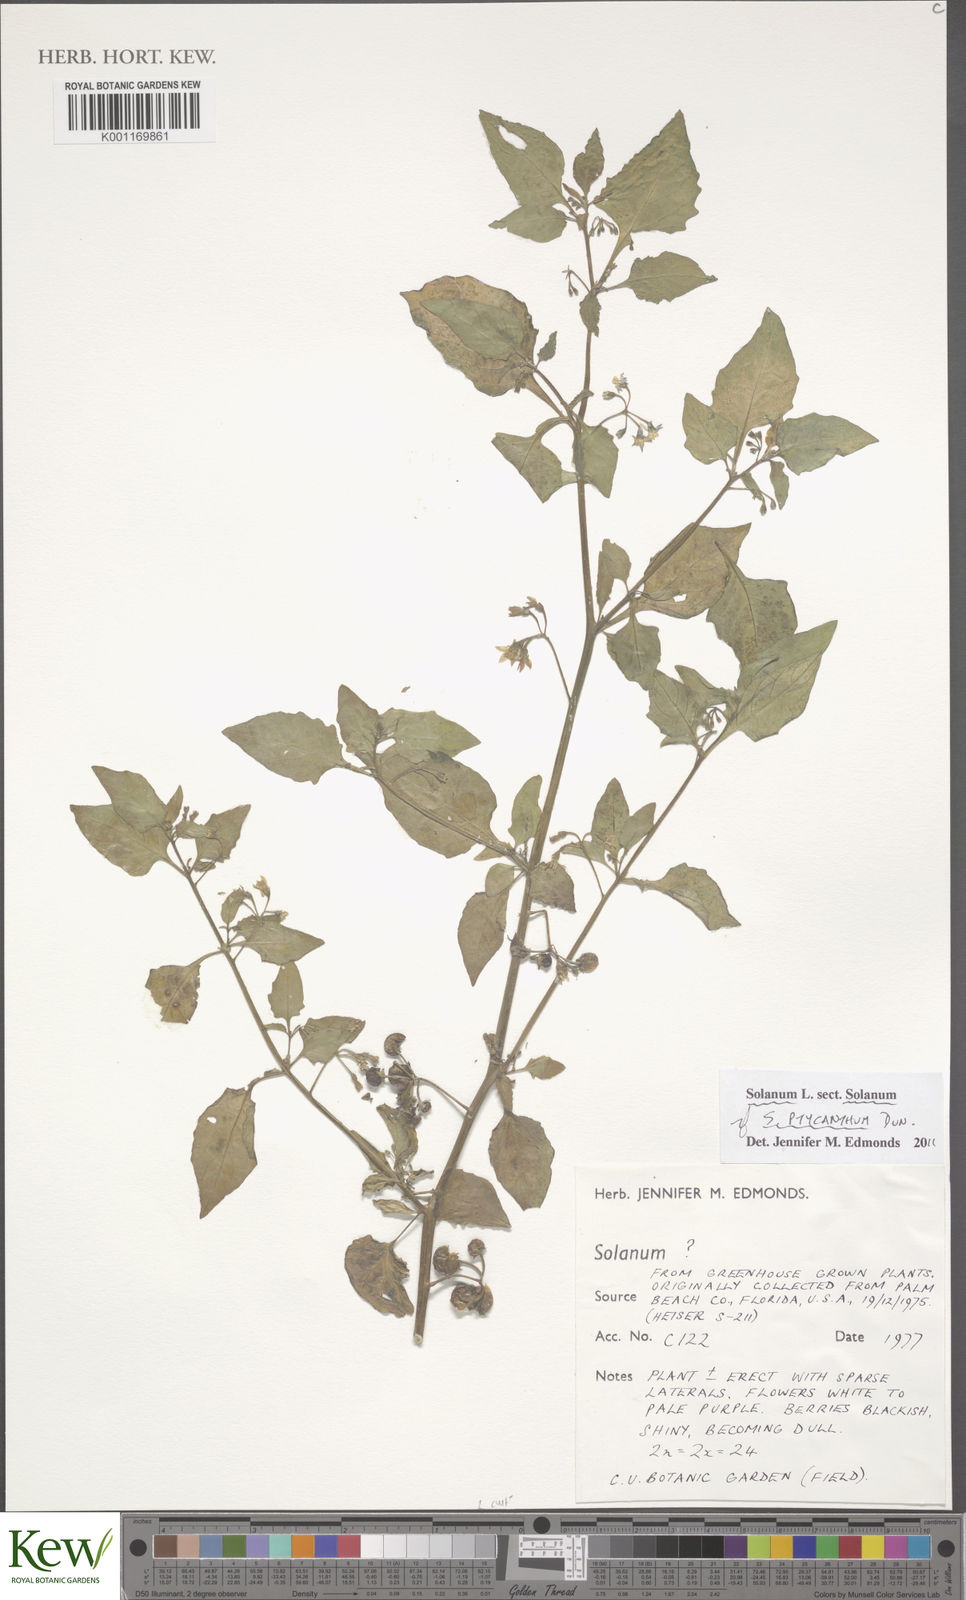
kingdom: Plantae
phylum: Tracheophyta
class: Magnoliopsida
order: Solanales
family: Solanaceae
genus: Solanum
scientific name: Solanum americanum
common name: American black nightshade
